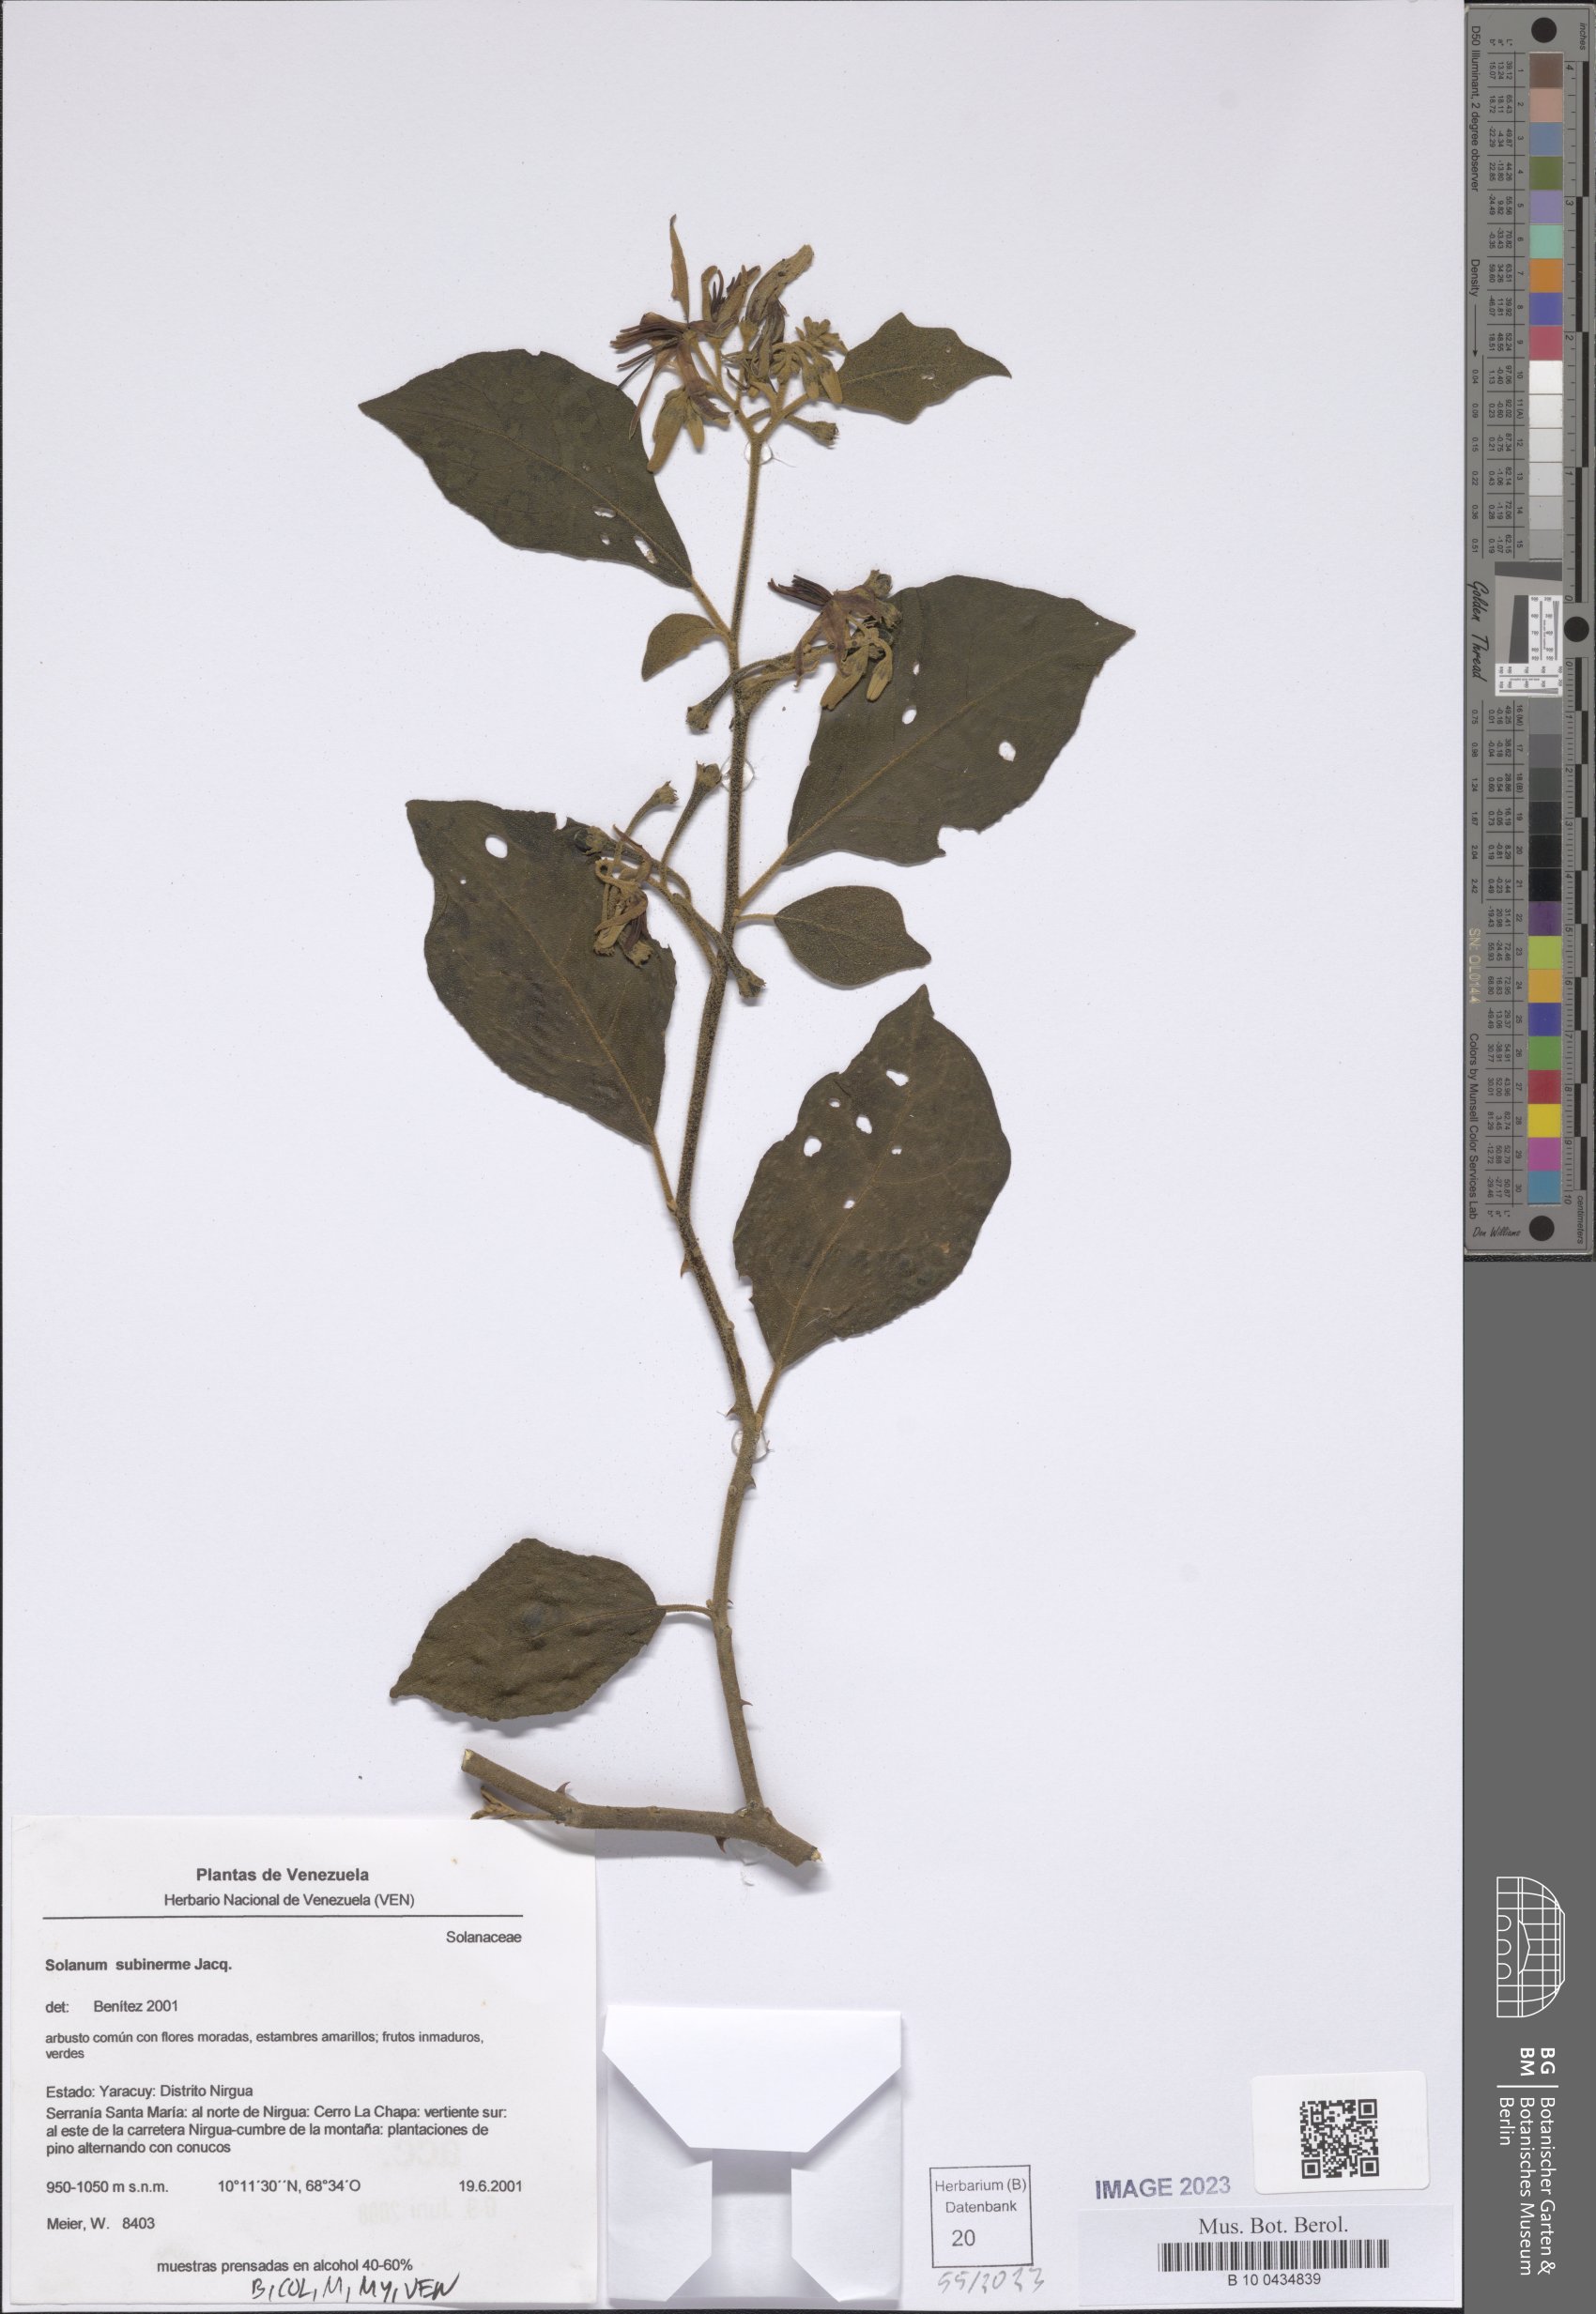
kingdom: Plantae
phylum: Tracheophyta
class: Magnoliopsida
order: Solanales
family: Solanaceae
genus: Solanum
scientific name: Solanum subinerme
